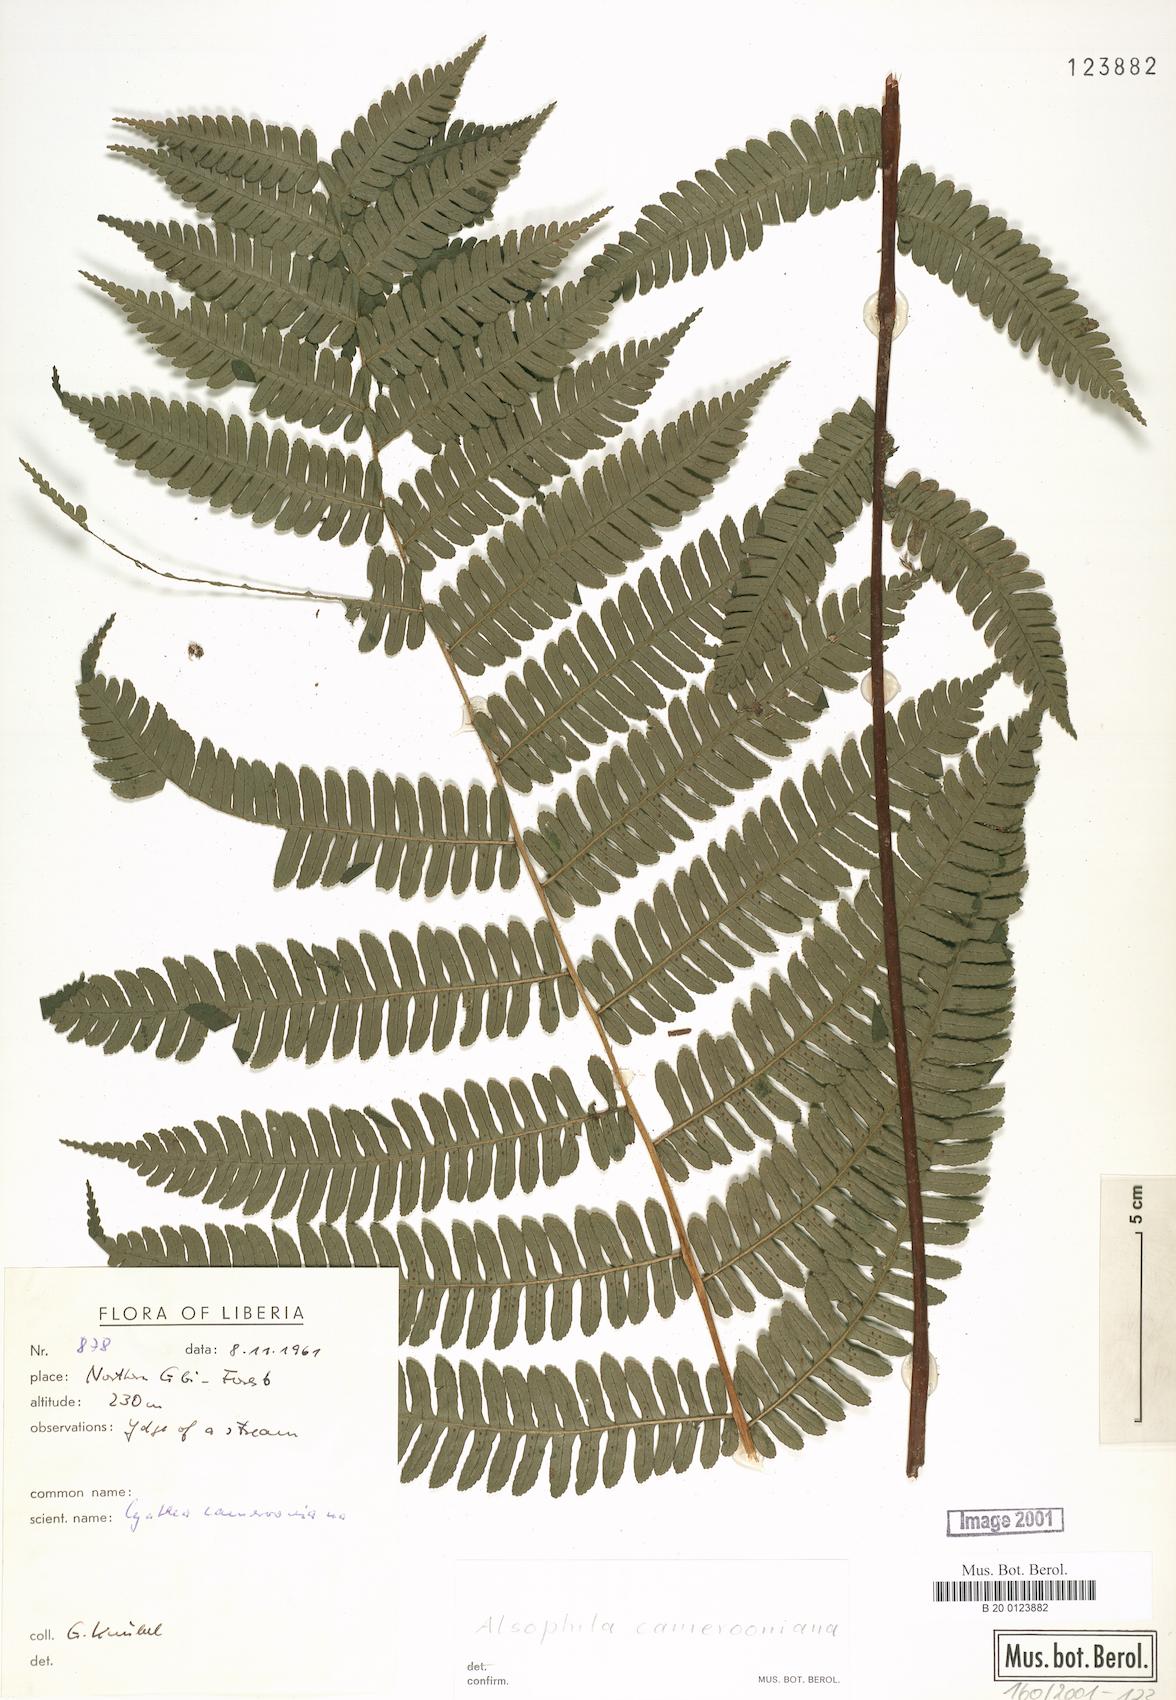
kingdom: Plantae
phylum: Tracheophyta
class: Polypodiopsida
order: Cyatheales
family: Cyatheaceae
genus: Alsophila
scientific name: Alsophila camerooniana
